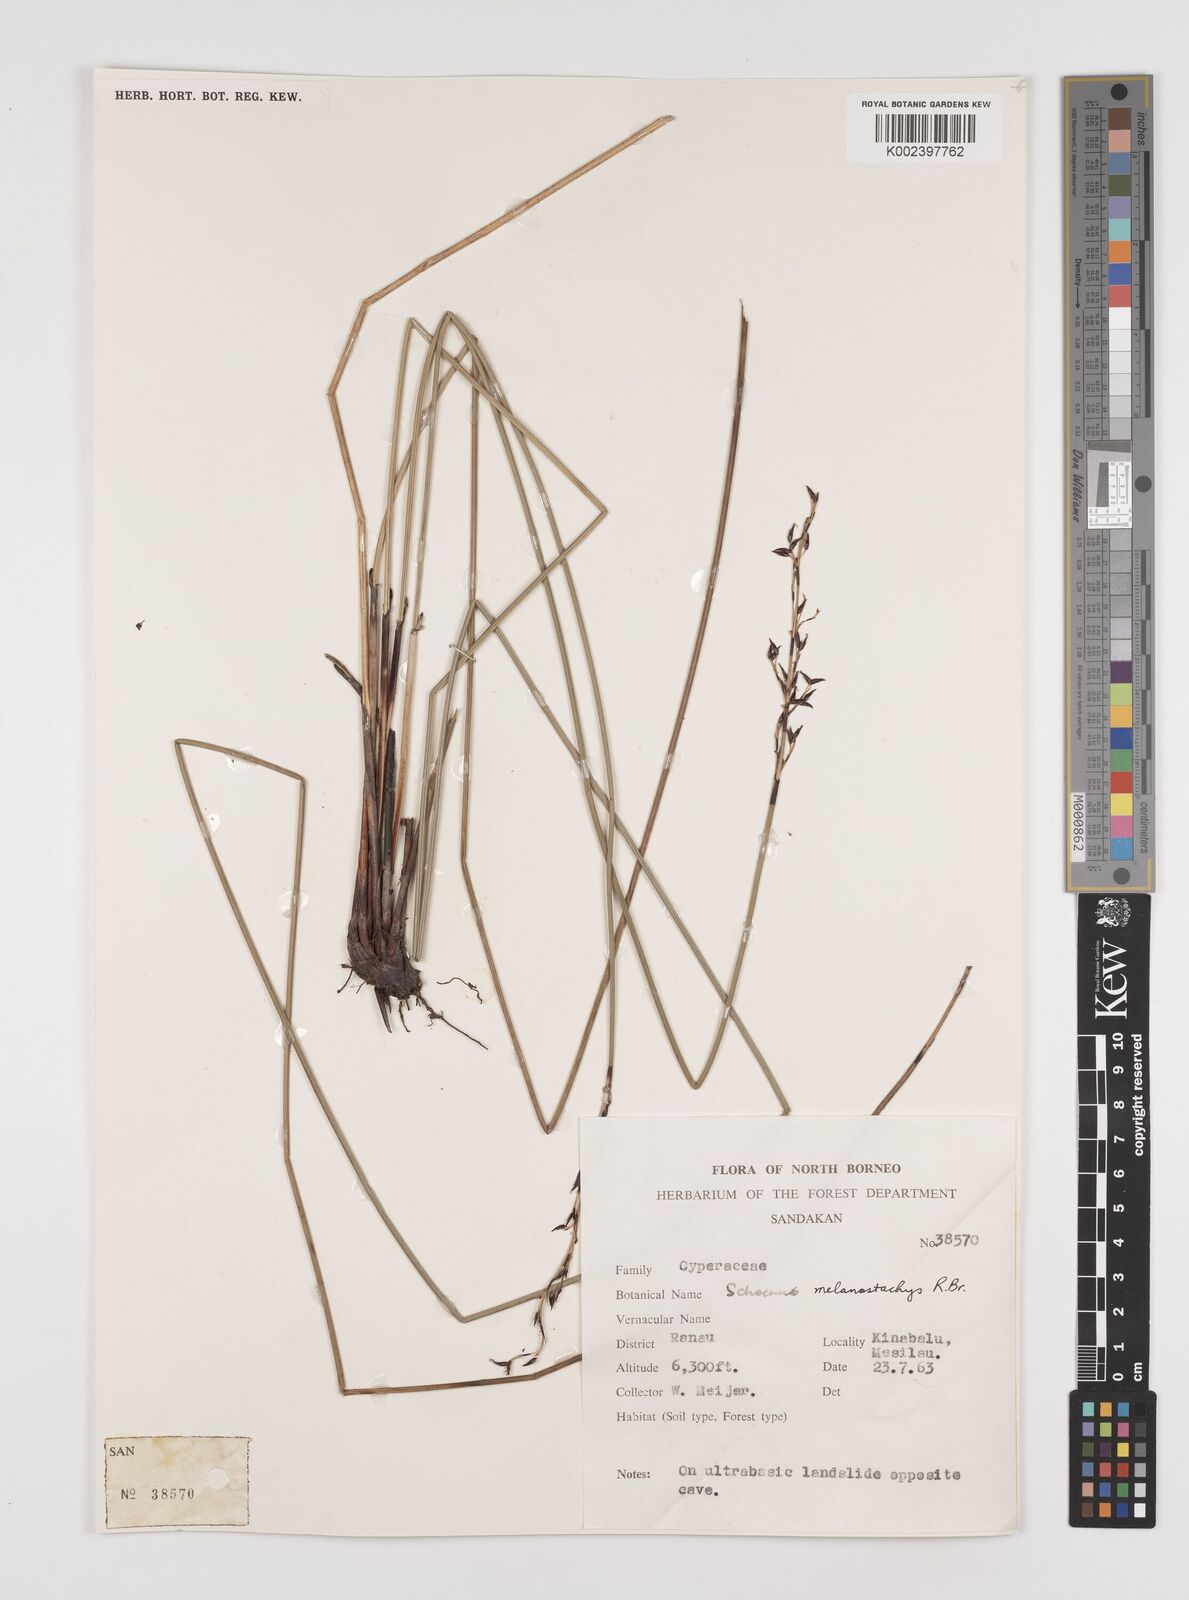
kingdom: Plantae
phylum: Tracheophyta
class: Liliopsida
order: Poales
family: Cyperaceae
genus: Schoenus
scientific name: Schoenus melanostachys
